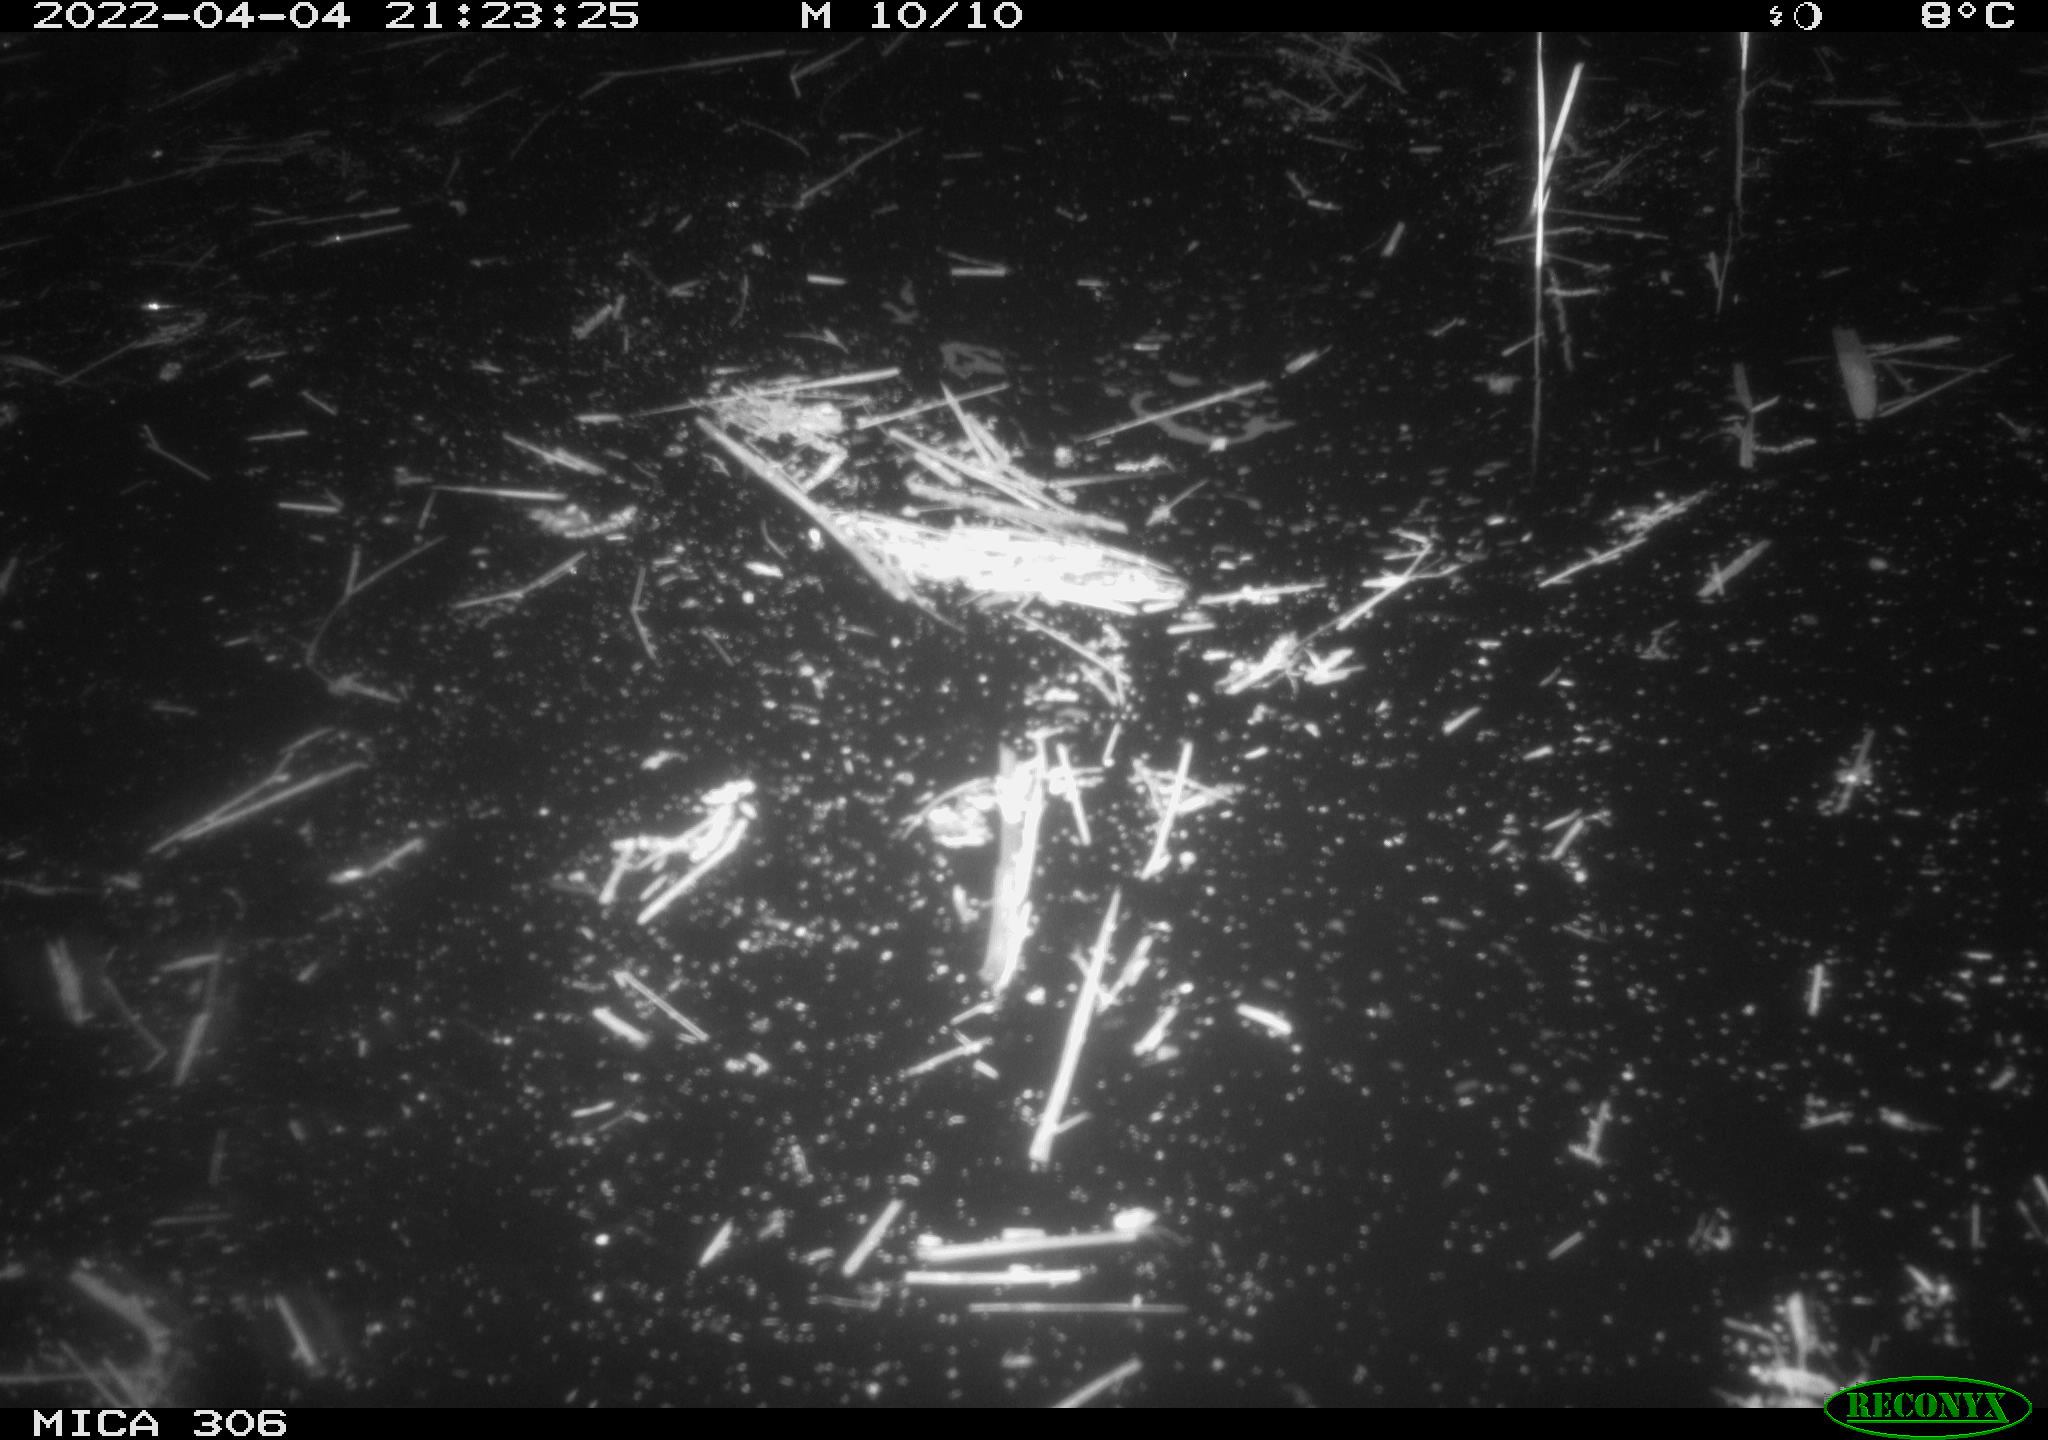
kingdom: Animalia
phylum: Chordata
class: Aves
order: Anseriformes
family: Anatidae
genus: Anas
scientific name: Anas platyrhynchos
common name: Mallard
